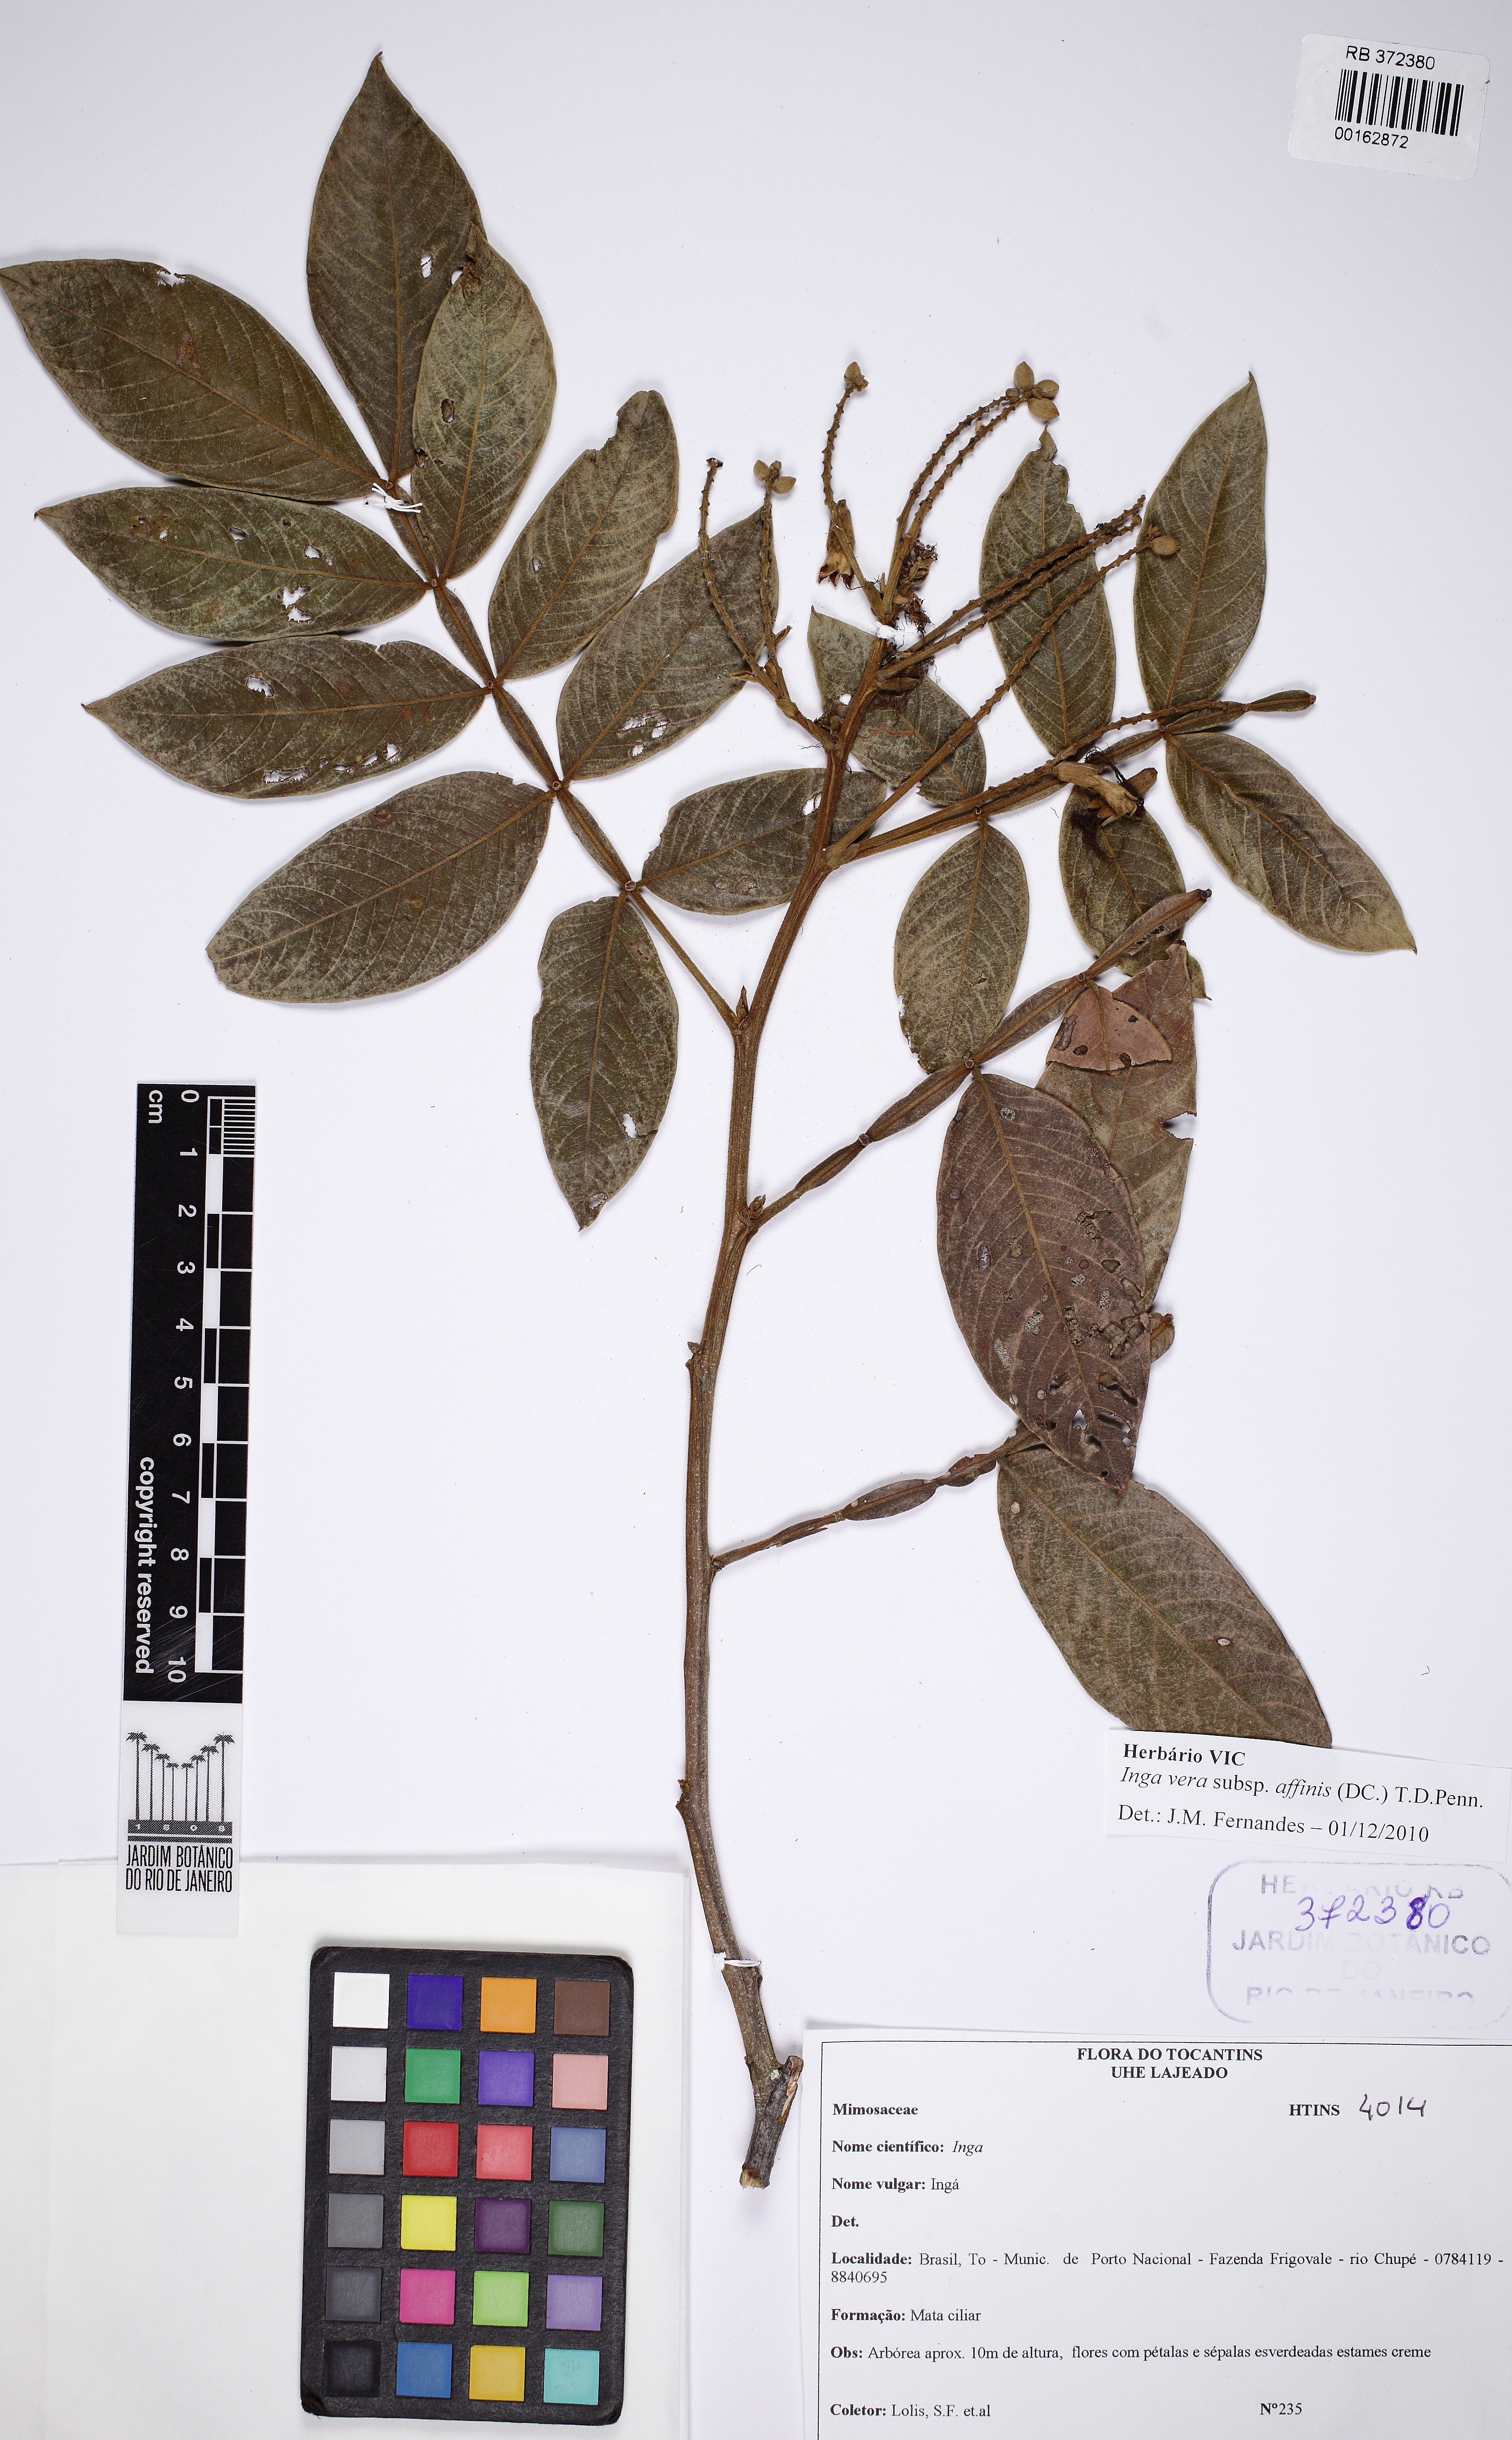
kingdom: Plantae
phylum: Tracheophyta
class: Magnoliopsida
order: Fabales
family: Fabaceae
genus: Inga
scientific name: Inga affinis
